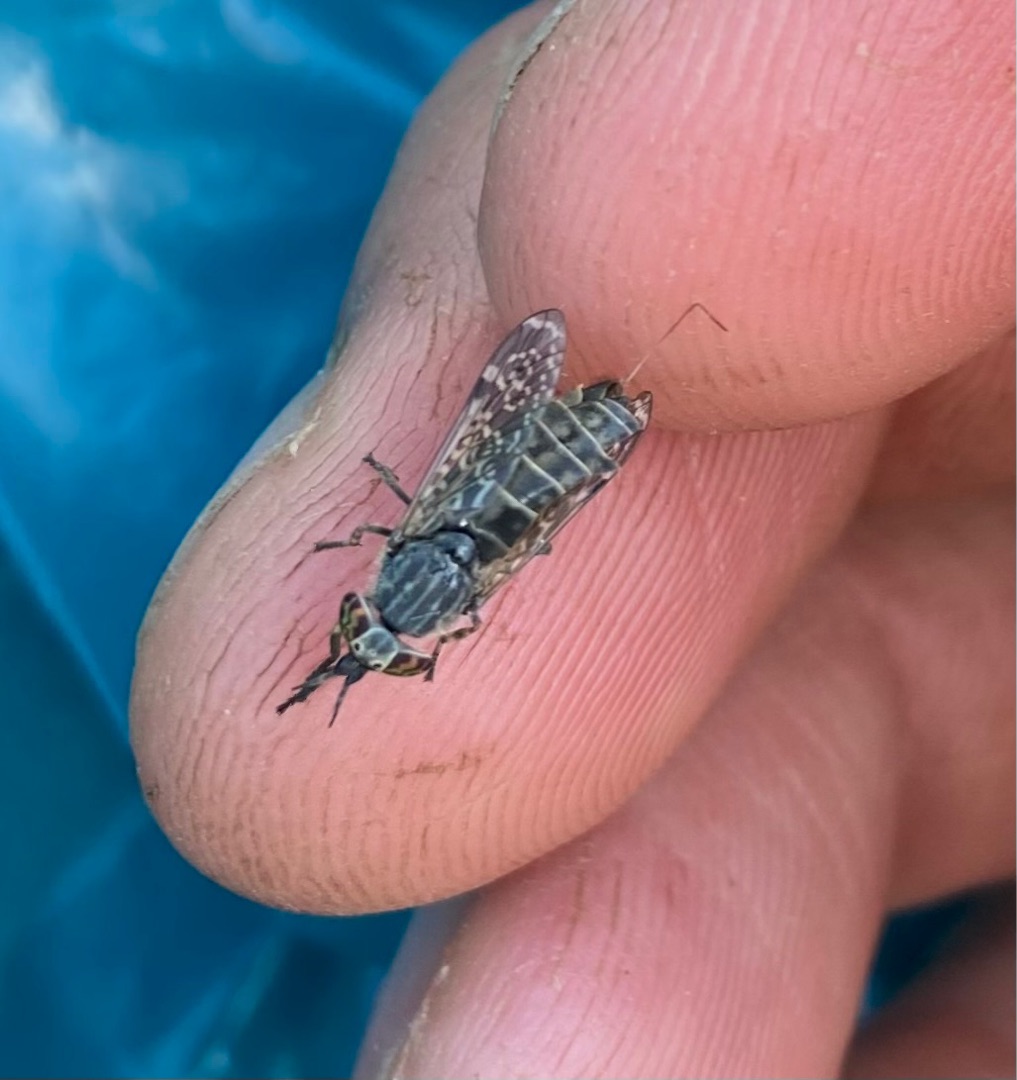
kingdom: Animalia
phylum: Arthropoda
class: Insecta
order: Diptera
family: Tabanidae
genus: Haematopota
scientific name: Haematopota pluvialis
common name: Regnklæg
